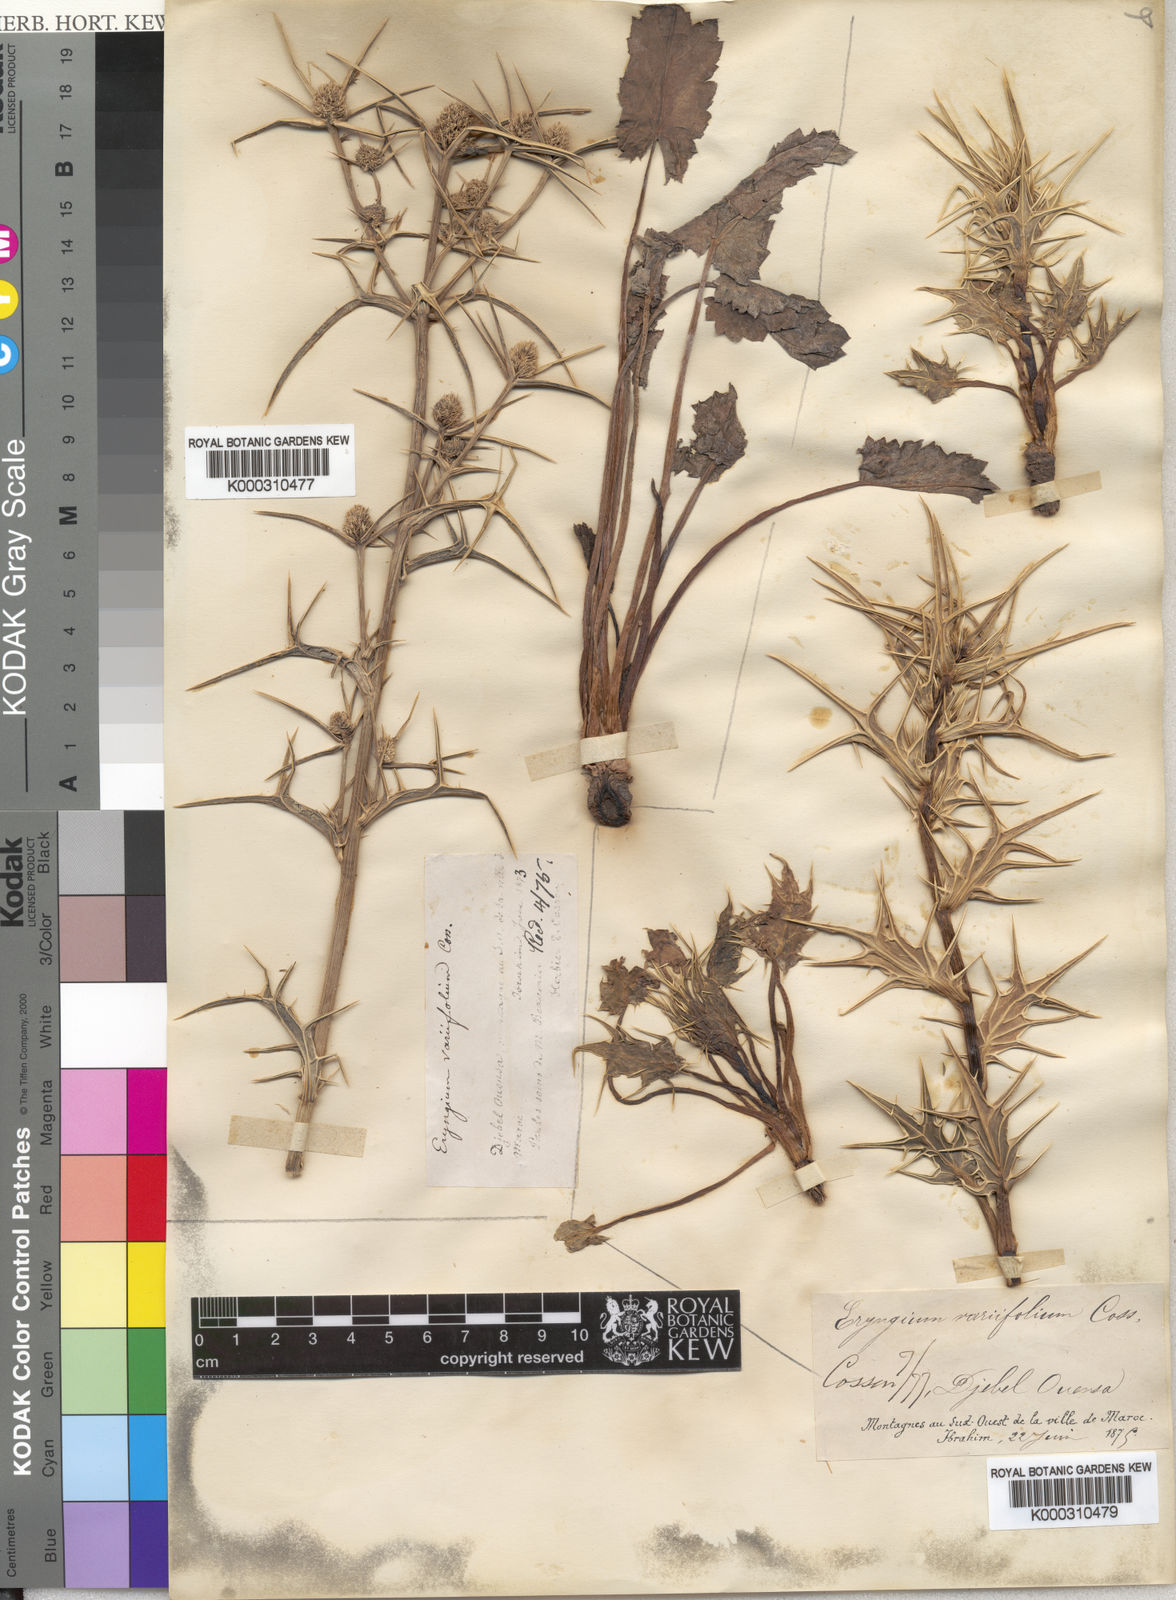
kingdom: Plantae
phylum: Tracheophyta
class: Magnoliopsida
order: Apiales
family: Apiaceae
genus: Eryngium
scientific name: Eryngium variifolium
